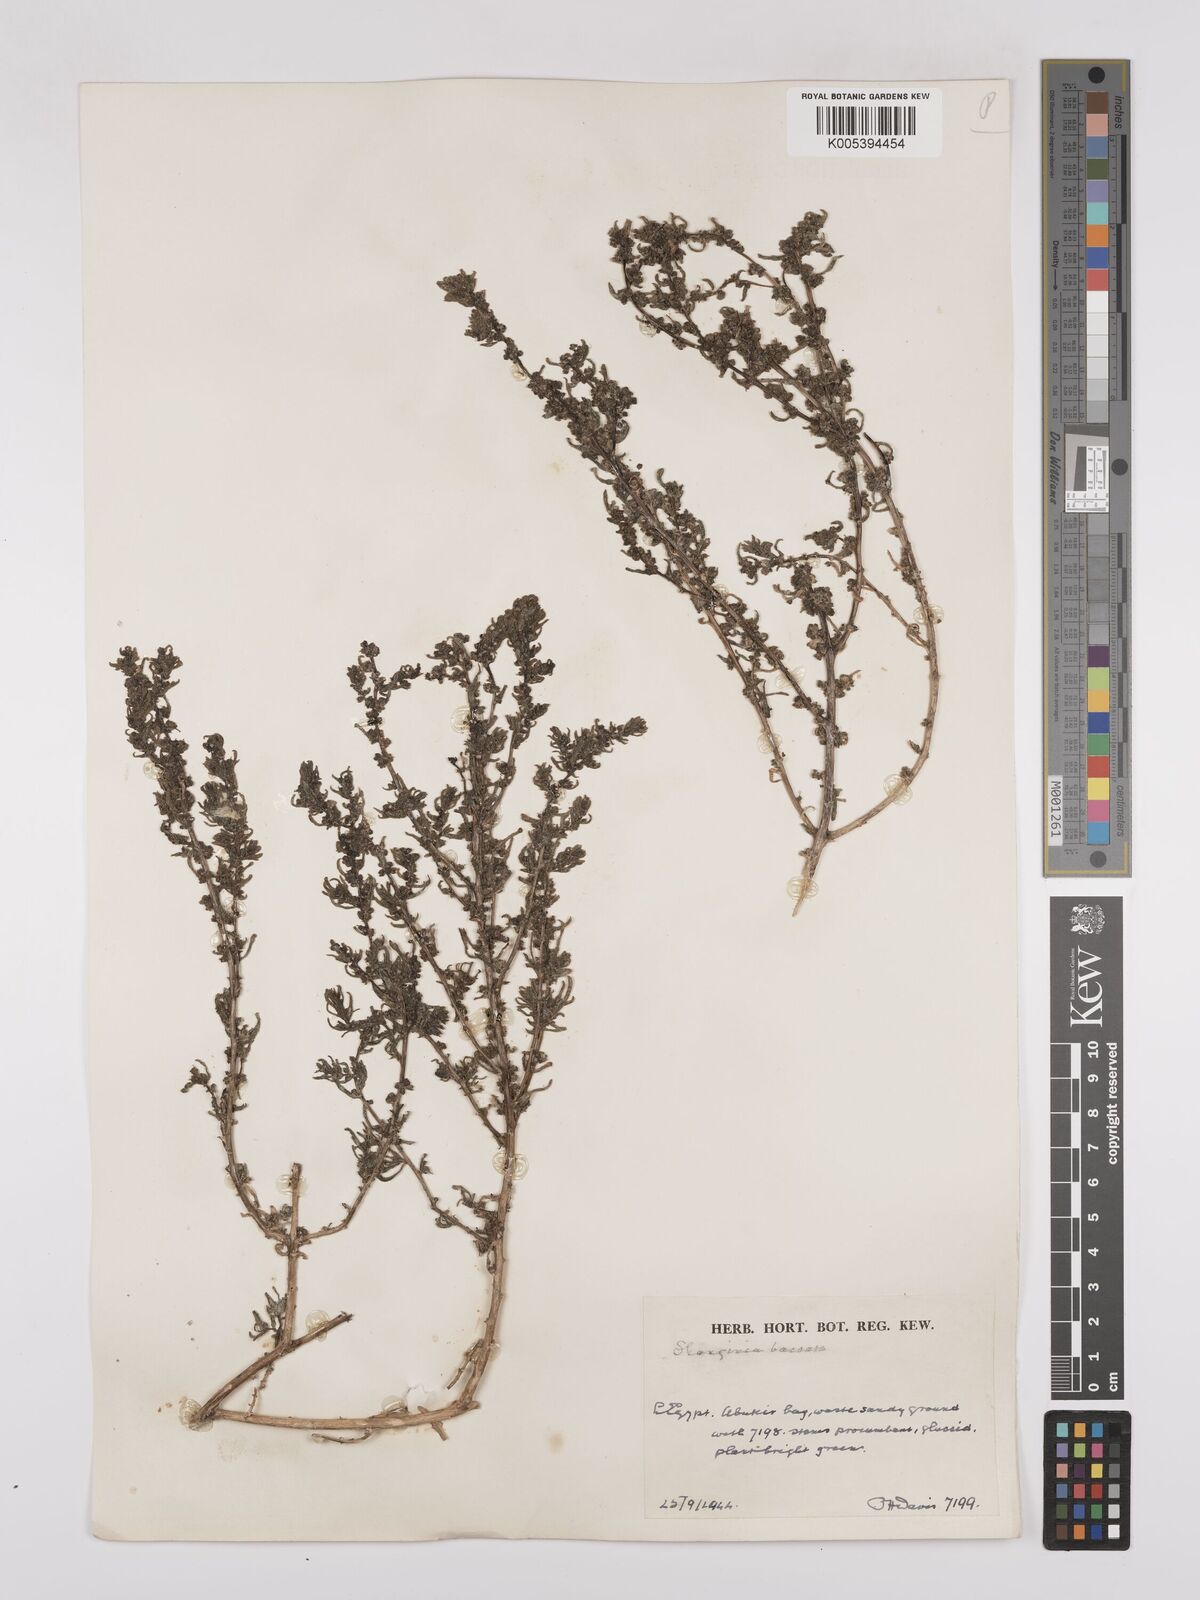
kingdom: Plantae
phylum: Tracheophyta
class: Magnoliopsida
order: Caryophyllales
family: Amaranthaceae
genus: Suaeda
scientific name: Suaeda aegyptiaca
